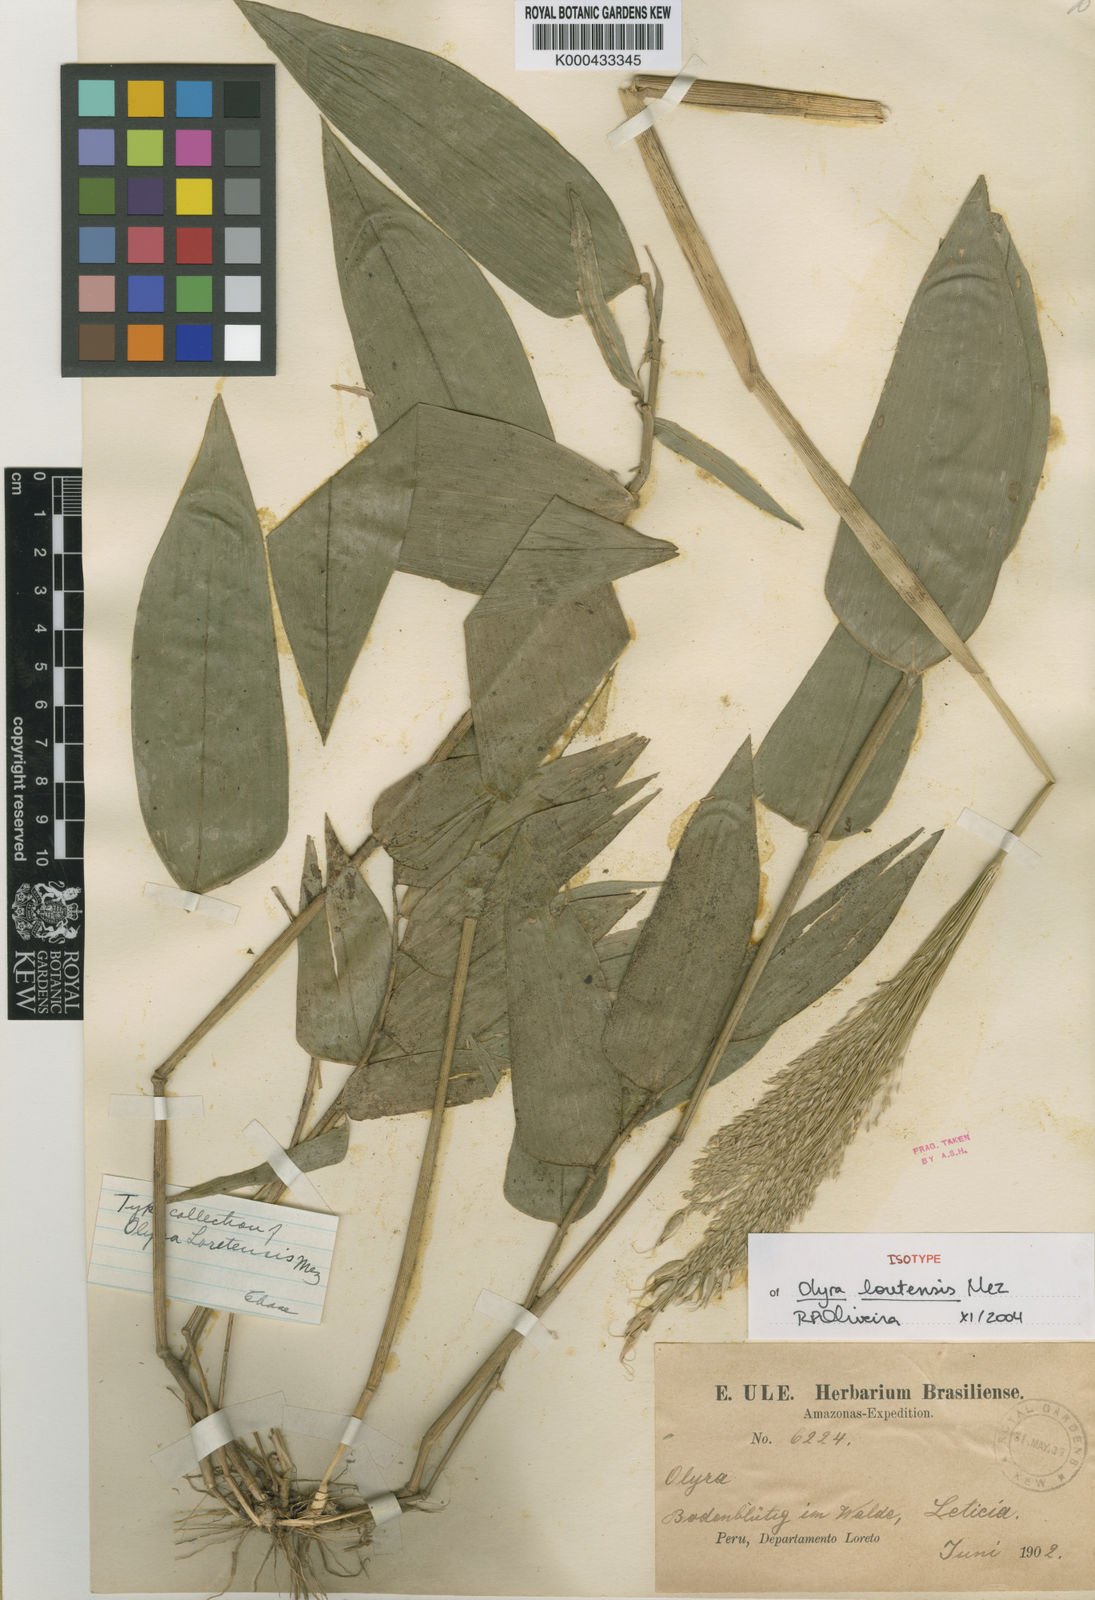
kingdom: Plantae
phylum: Tracheophyta
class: Liliopsida
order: Poales
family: Poaceae
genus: Olyra
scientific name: Olyra loretensis
